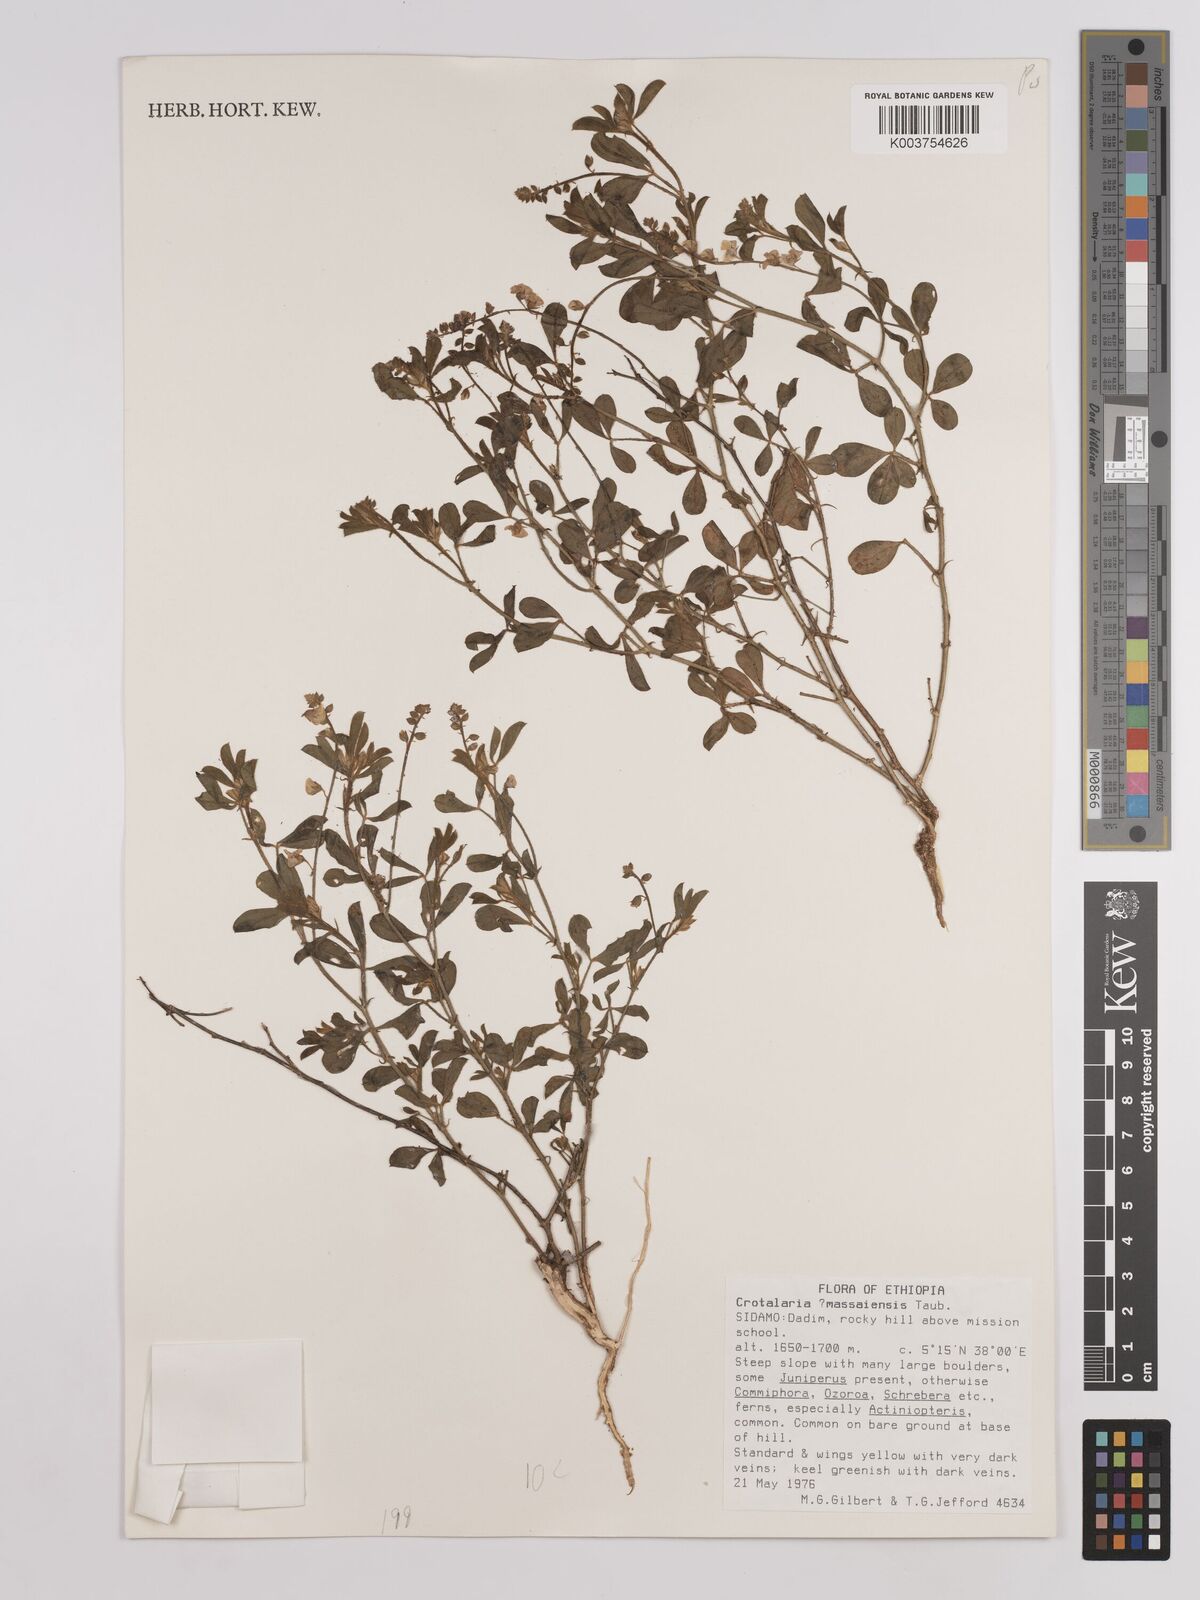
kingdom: Plantae
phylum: Tracheophyta
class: Magnoliopsida
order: Fabales
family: Fabaceae
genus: Crotalaria
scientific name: Crotalaria massaiensis
